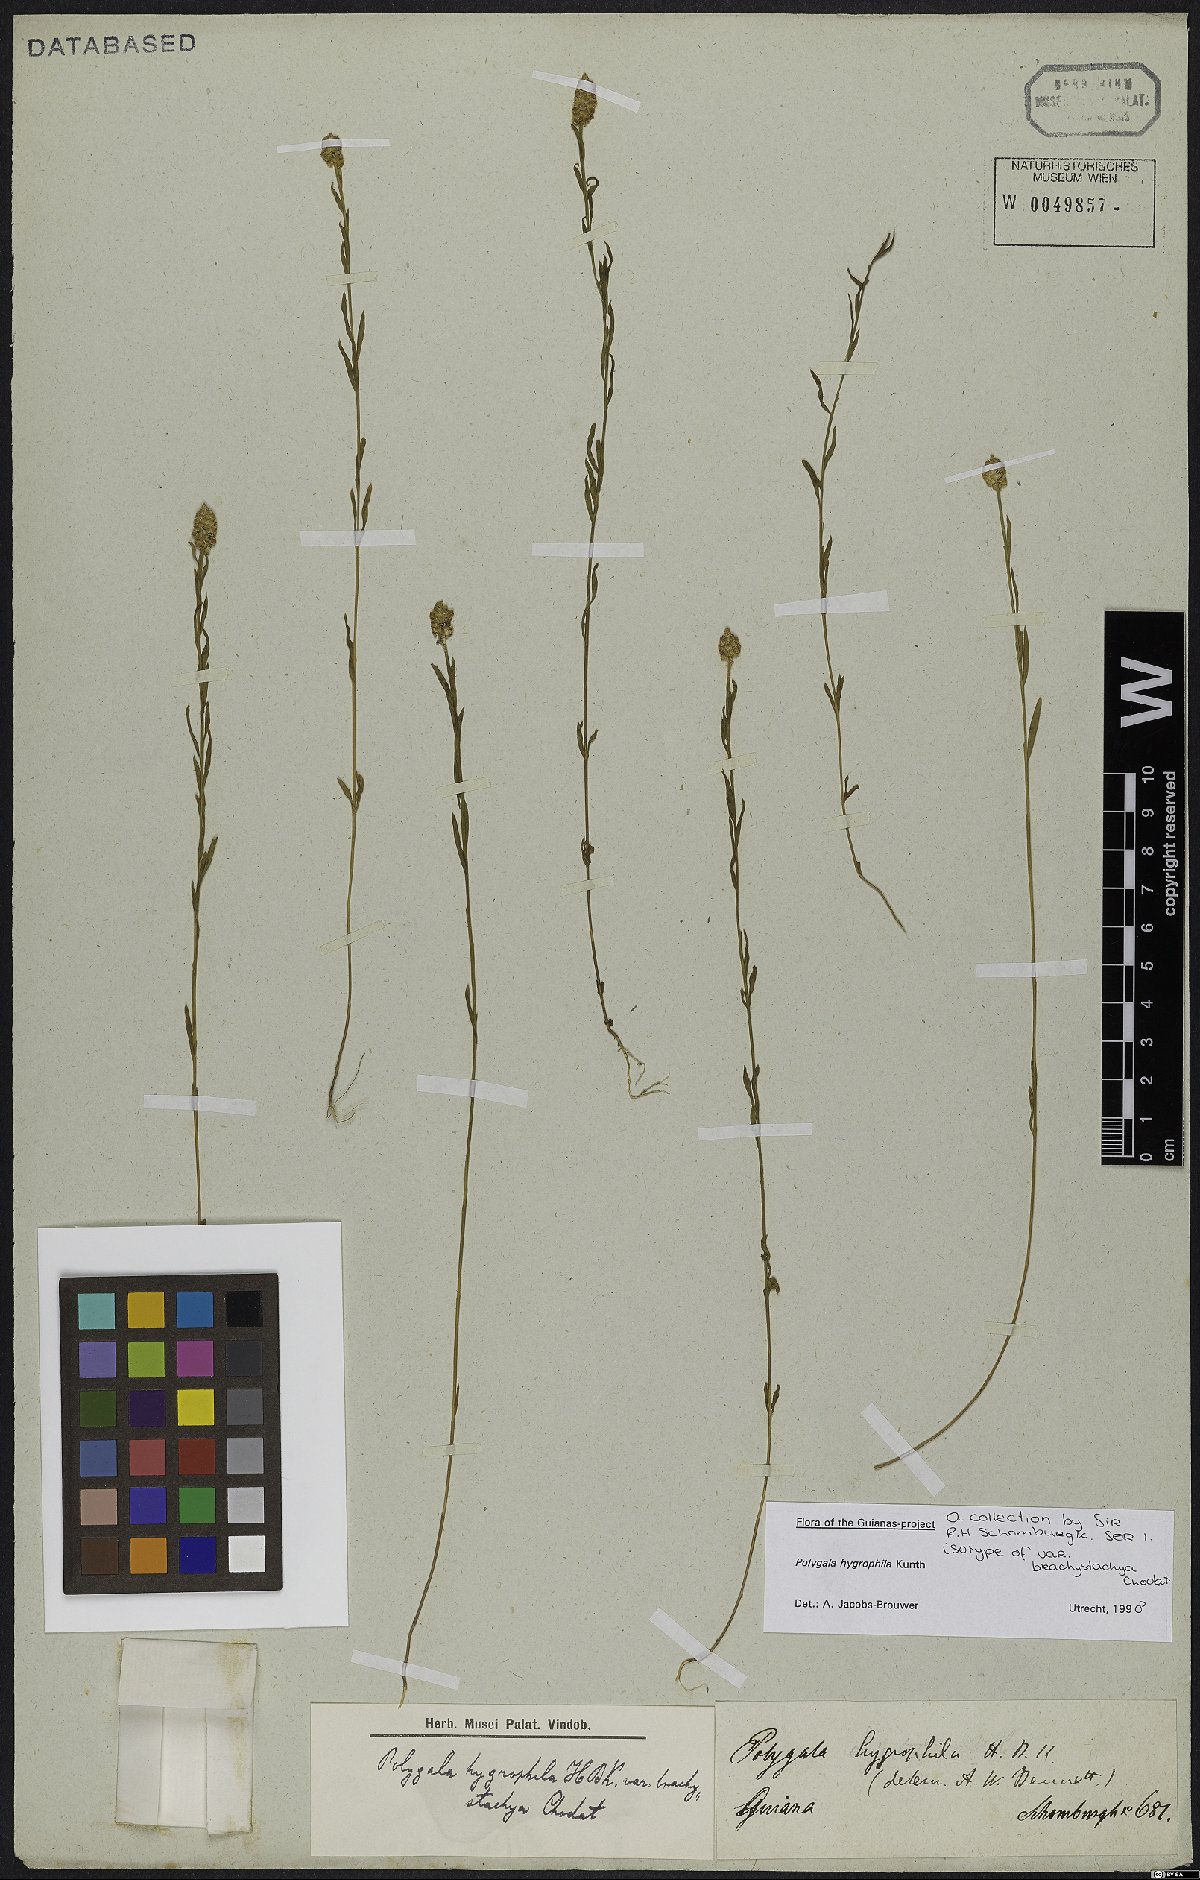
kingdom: Plantae
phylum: Tracheophyta
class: Magnoliopsida
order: Fabales
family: Polygalaceae
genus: Polygala
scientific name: Polygala hygrophila
